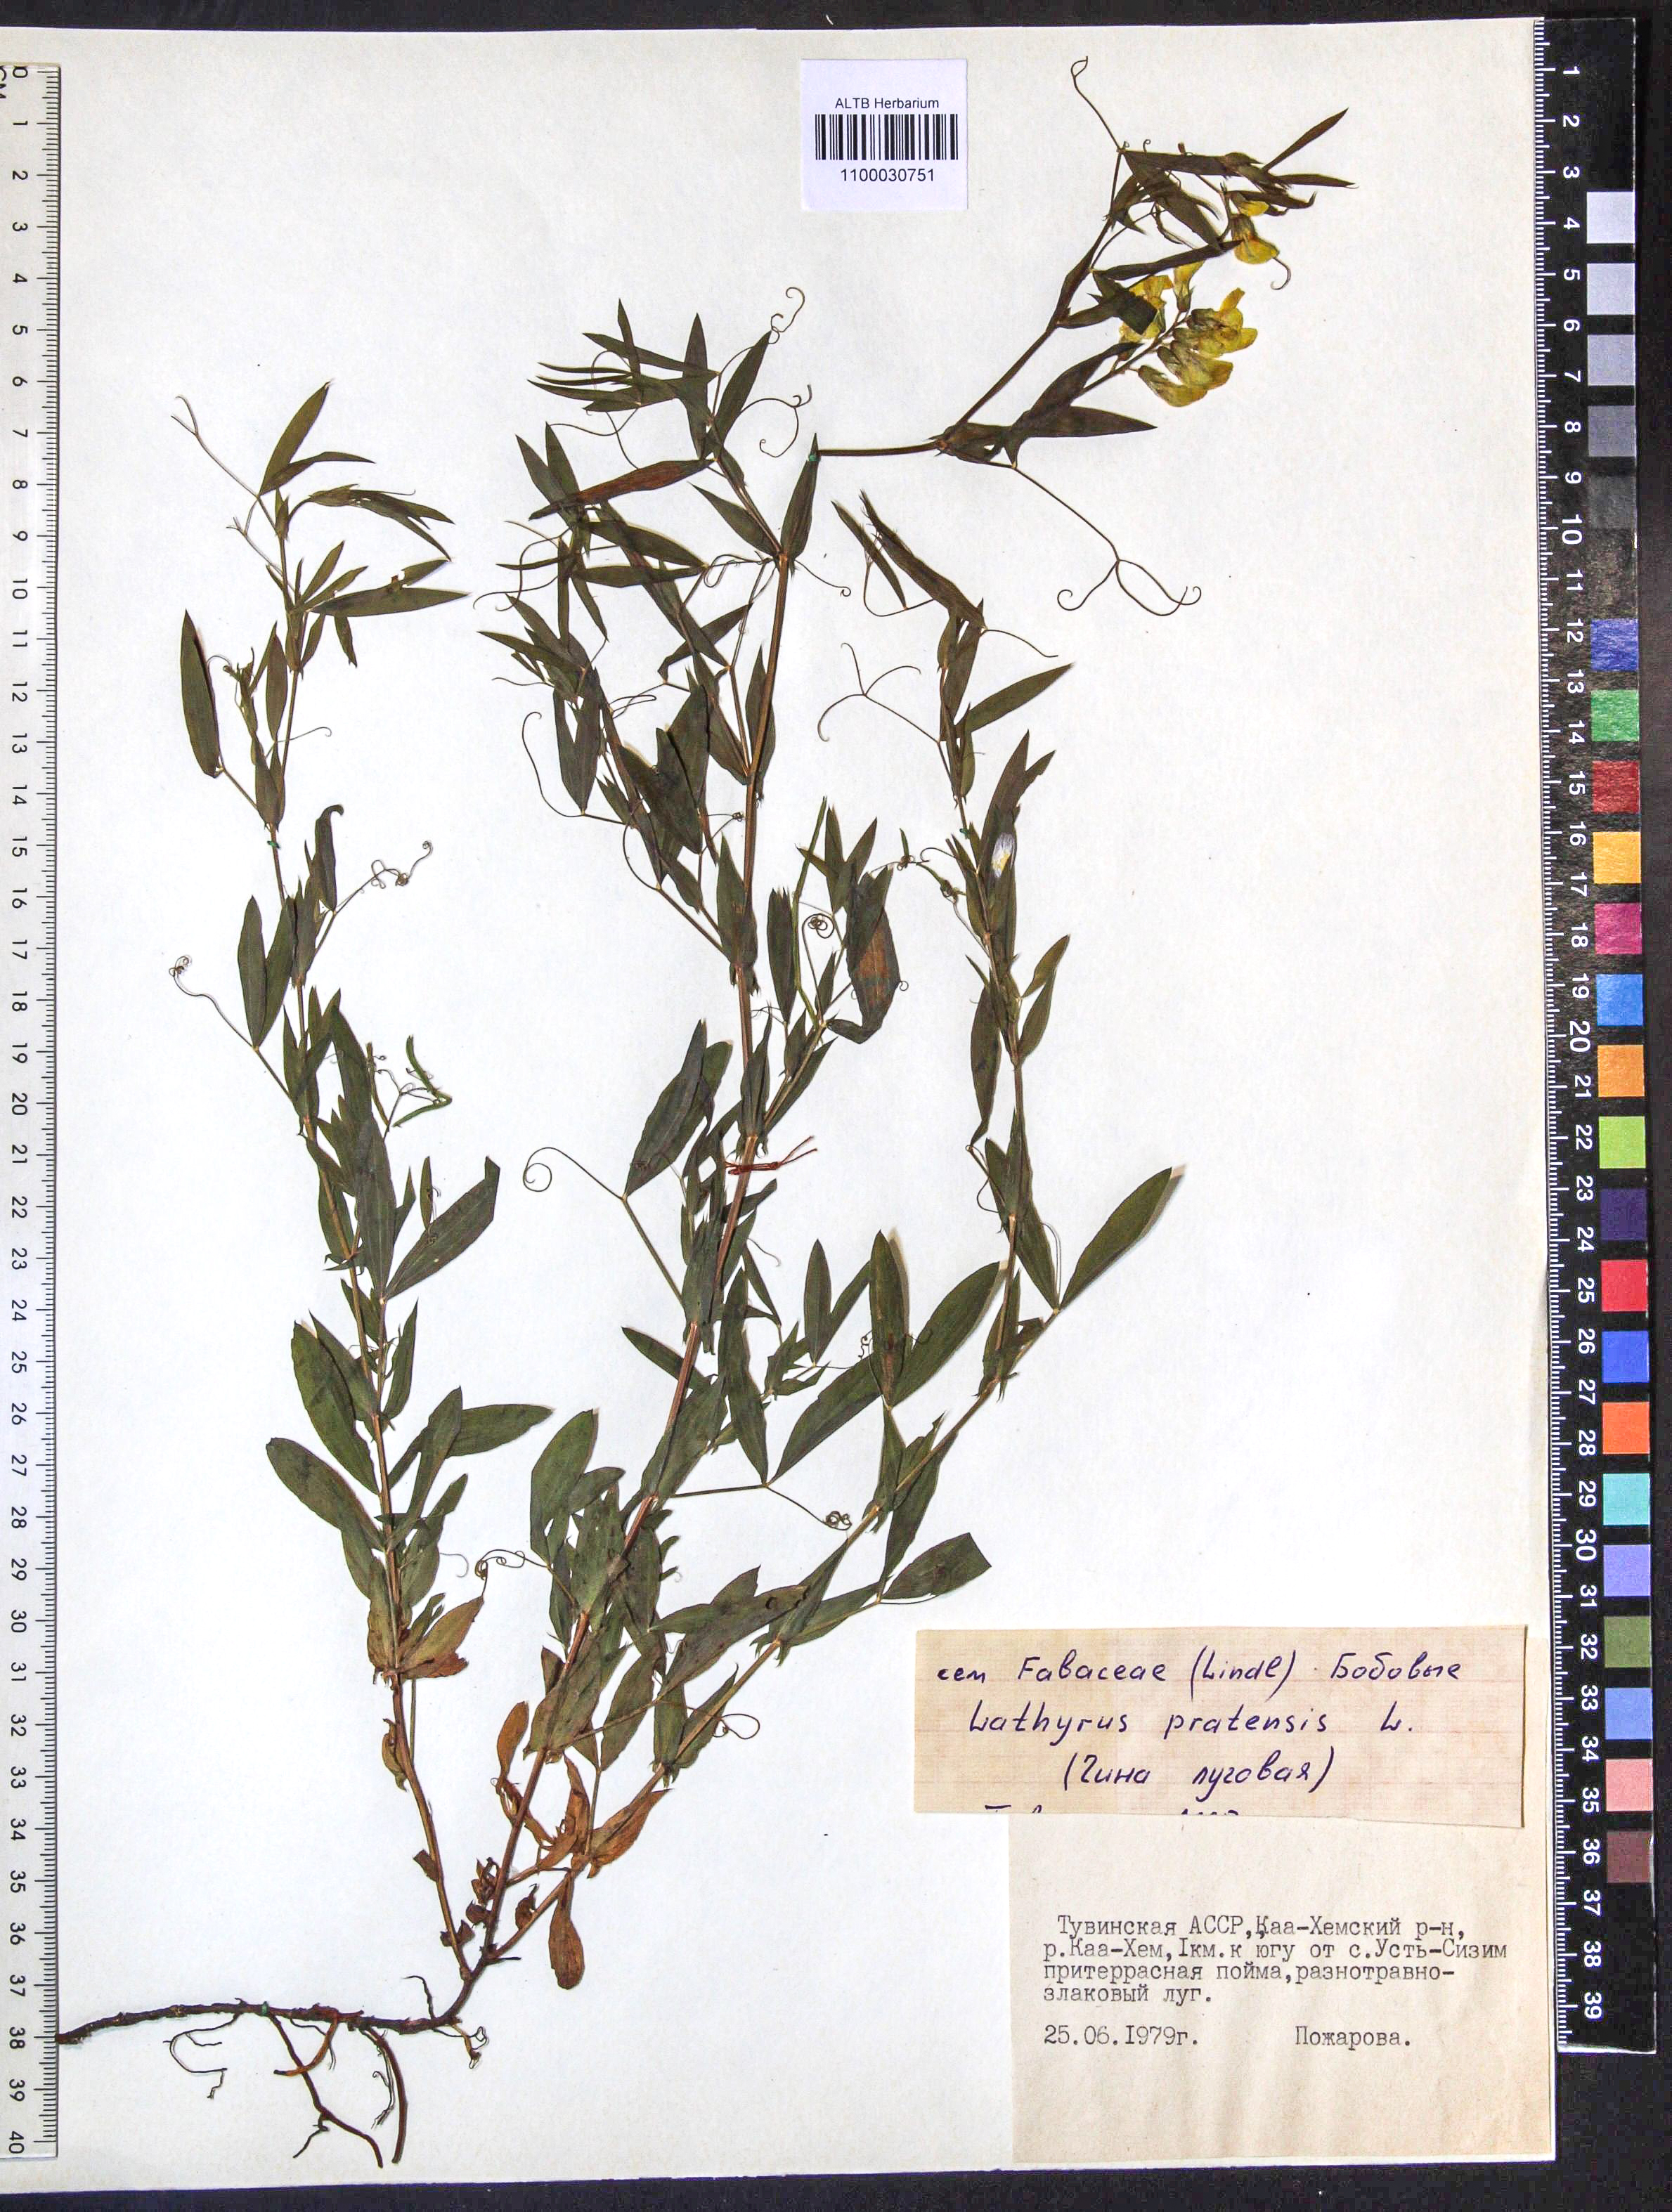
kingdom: Plantae
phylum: Tracheophyta
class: Magnoliopsida
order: Fabales
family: Fabaceae
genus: Lathyrus
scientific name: Lathyrus pratensis
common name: Meadow vetchling
